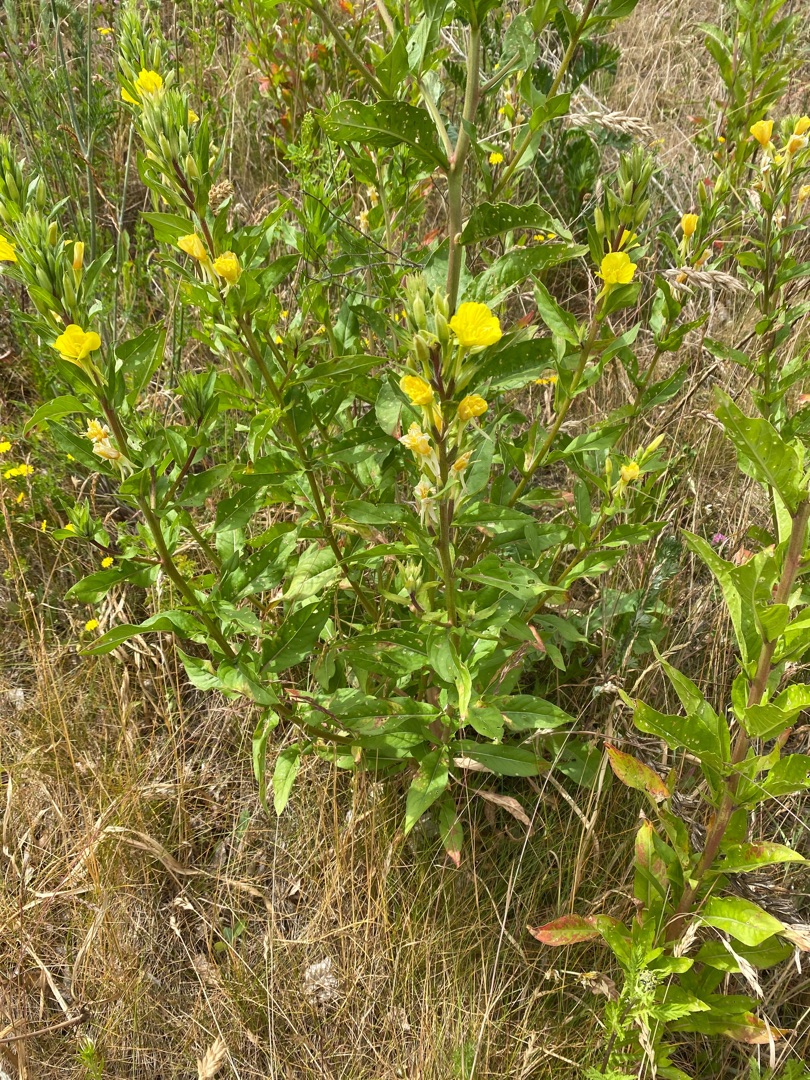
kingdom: Plantae
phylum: Tracheophyta
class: Magnoliopsida
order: Myrtales
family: Onagraceae
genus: Oenothera
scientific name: Oenothera biennis
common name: Rødfrugtet natlys
